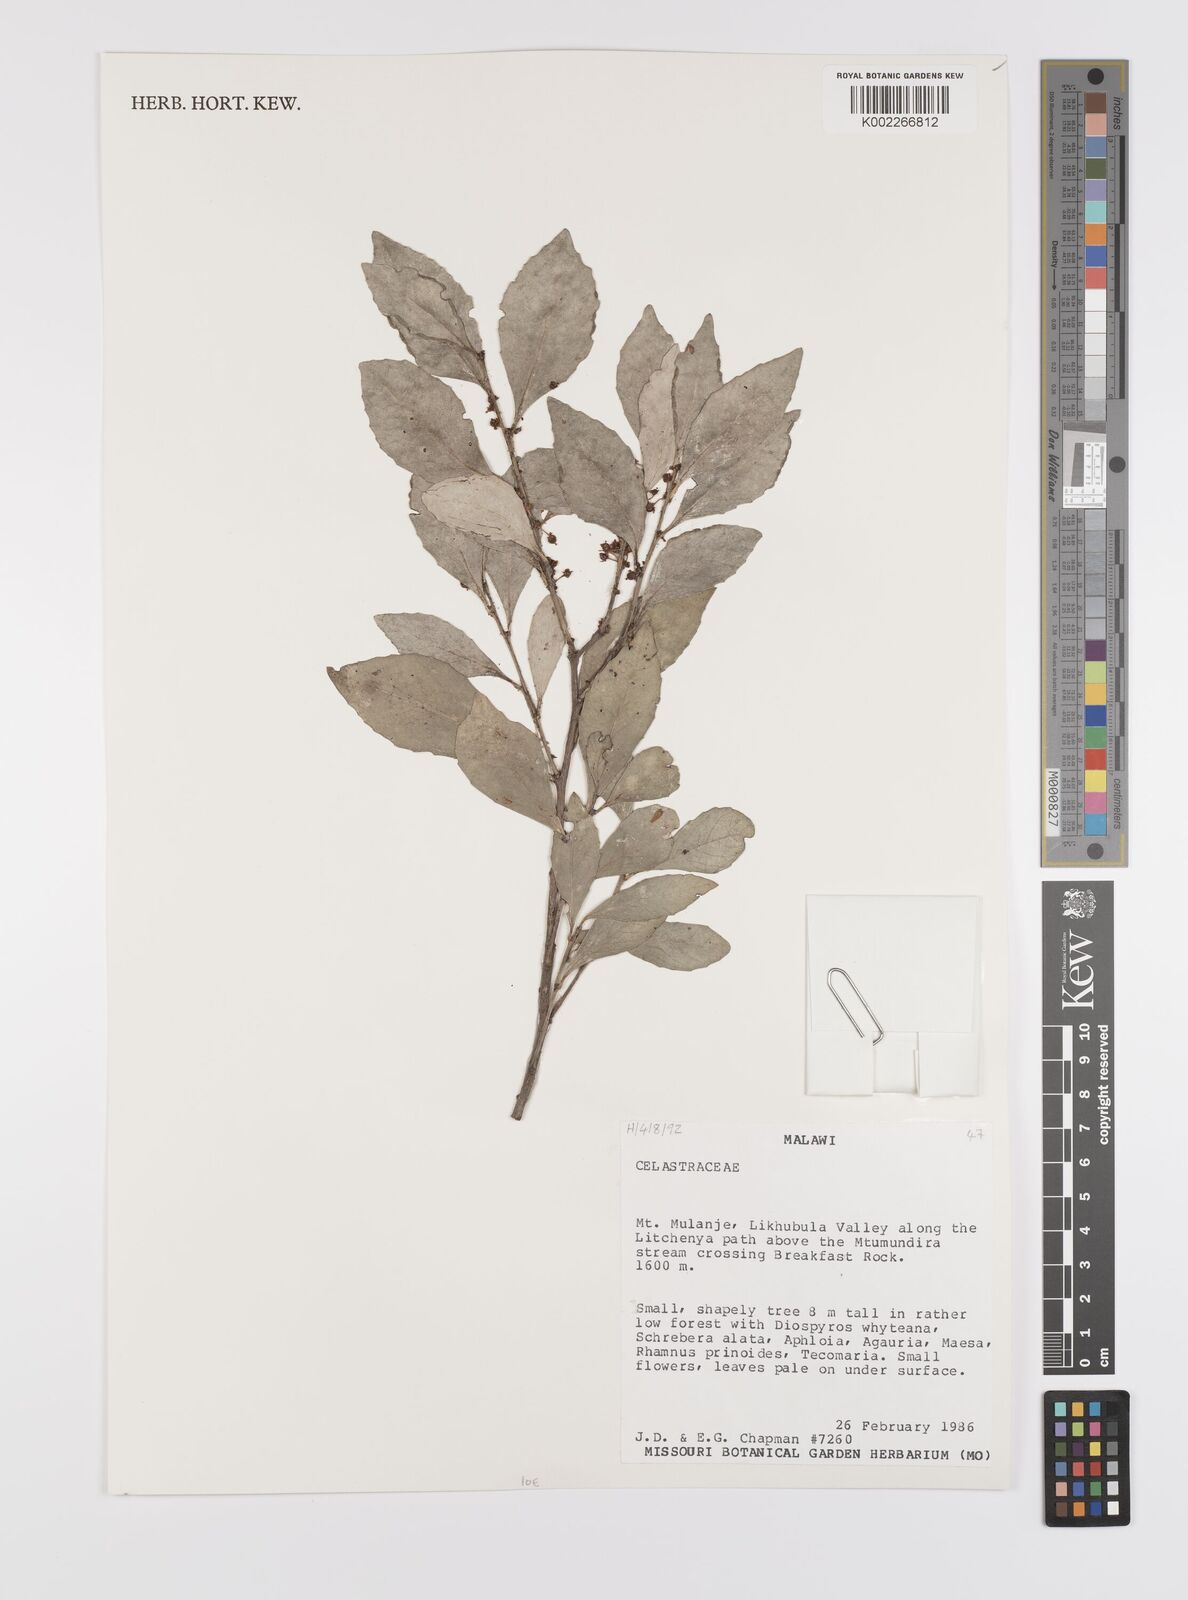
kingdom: Plantae
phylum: Tracheophyta
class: Magnoliopsida
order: Celastrales
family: Celastraceae
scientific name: Celastraceae
